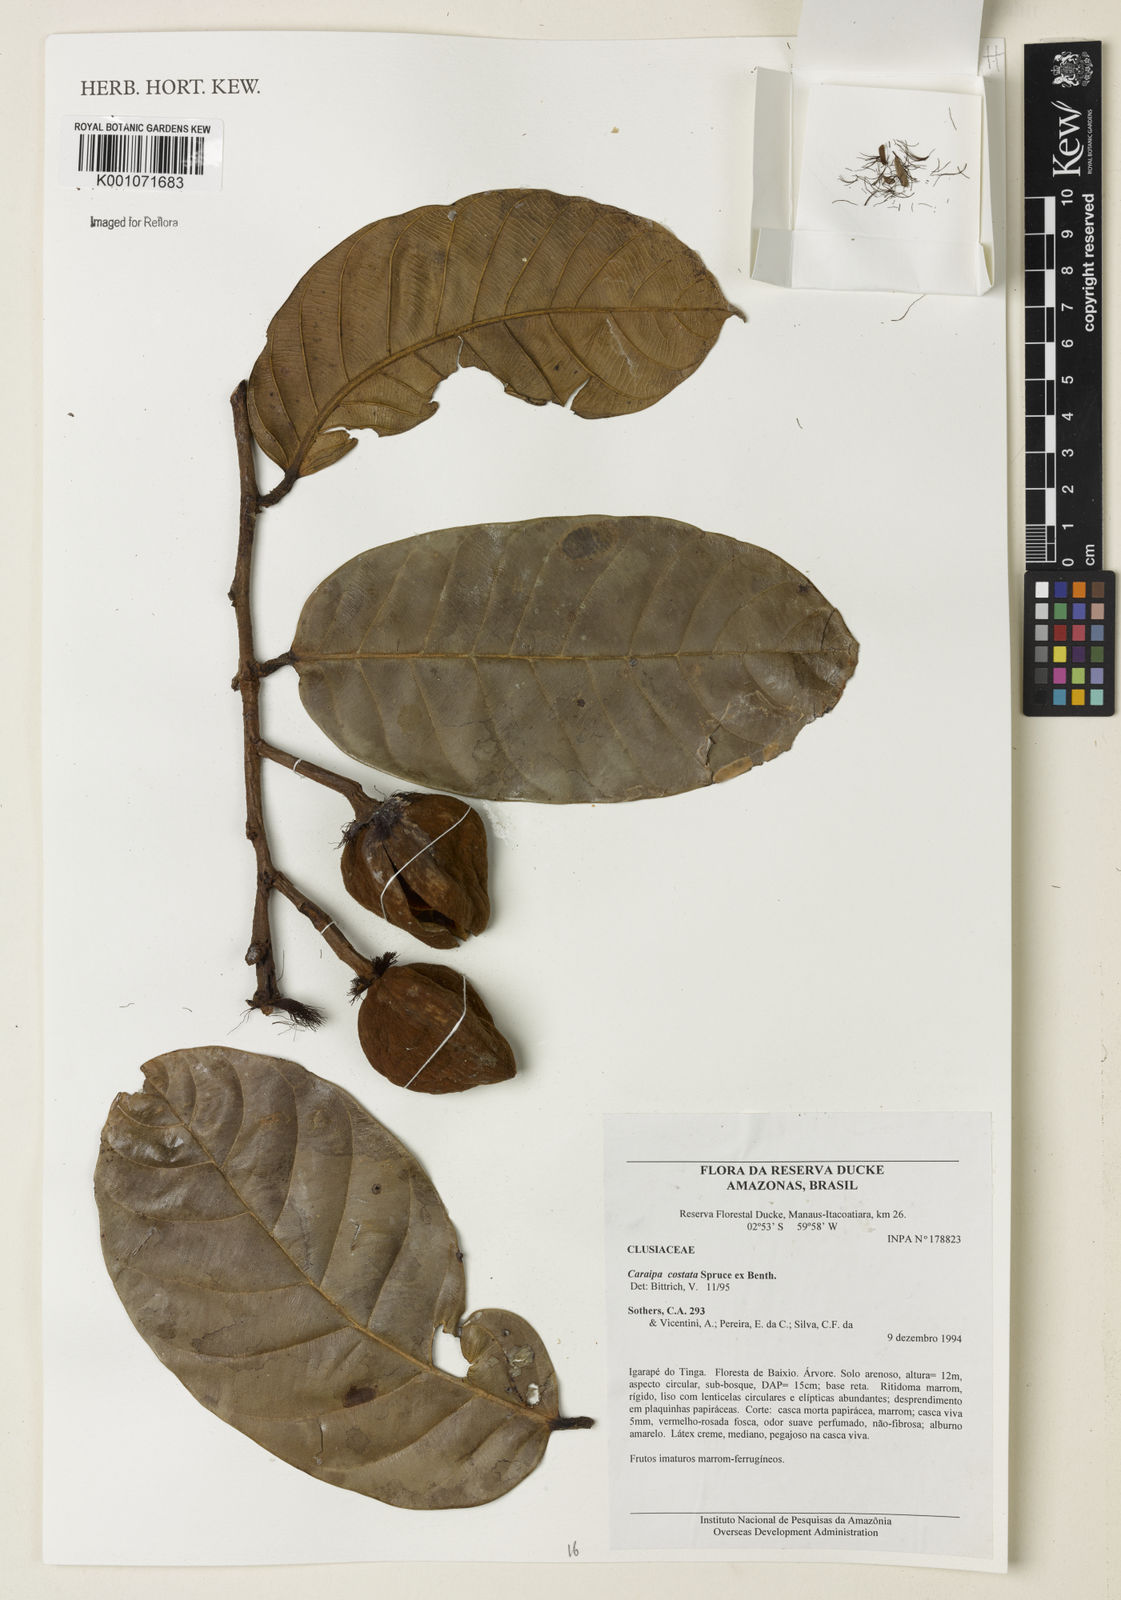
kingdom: Plantae
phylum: Tracheophyta
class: Magnoliopsida
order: Malpighiales
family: Calophyllaceae
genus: Caraipa
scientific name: Caraipa costata
